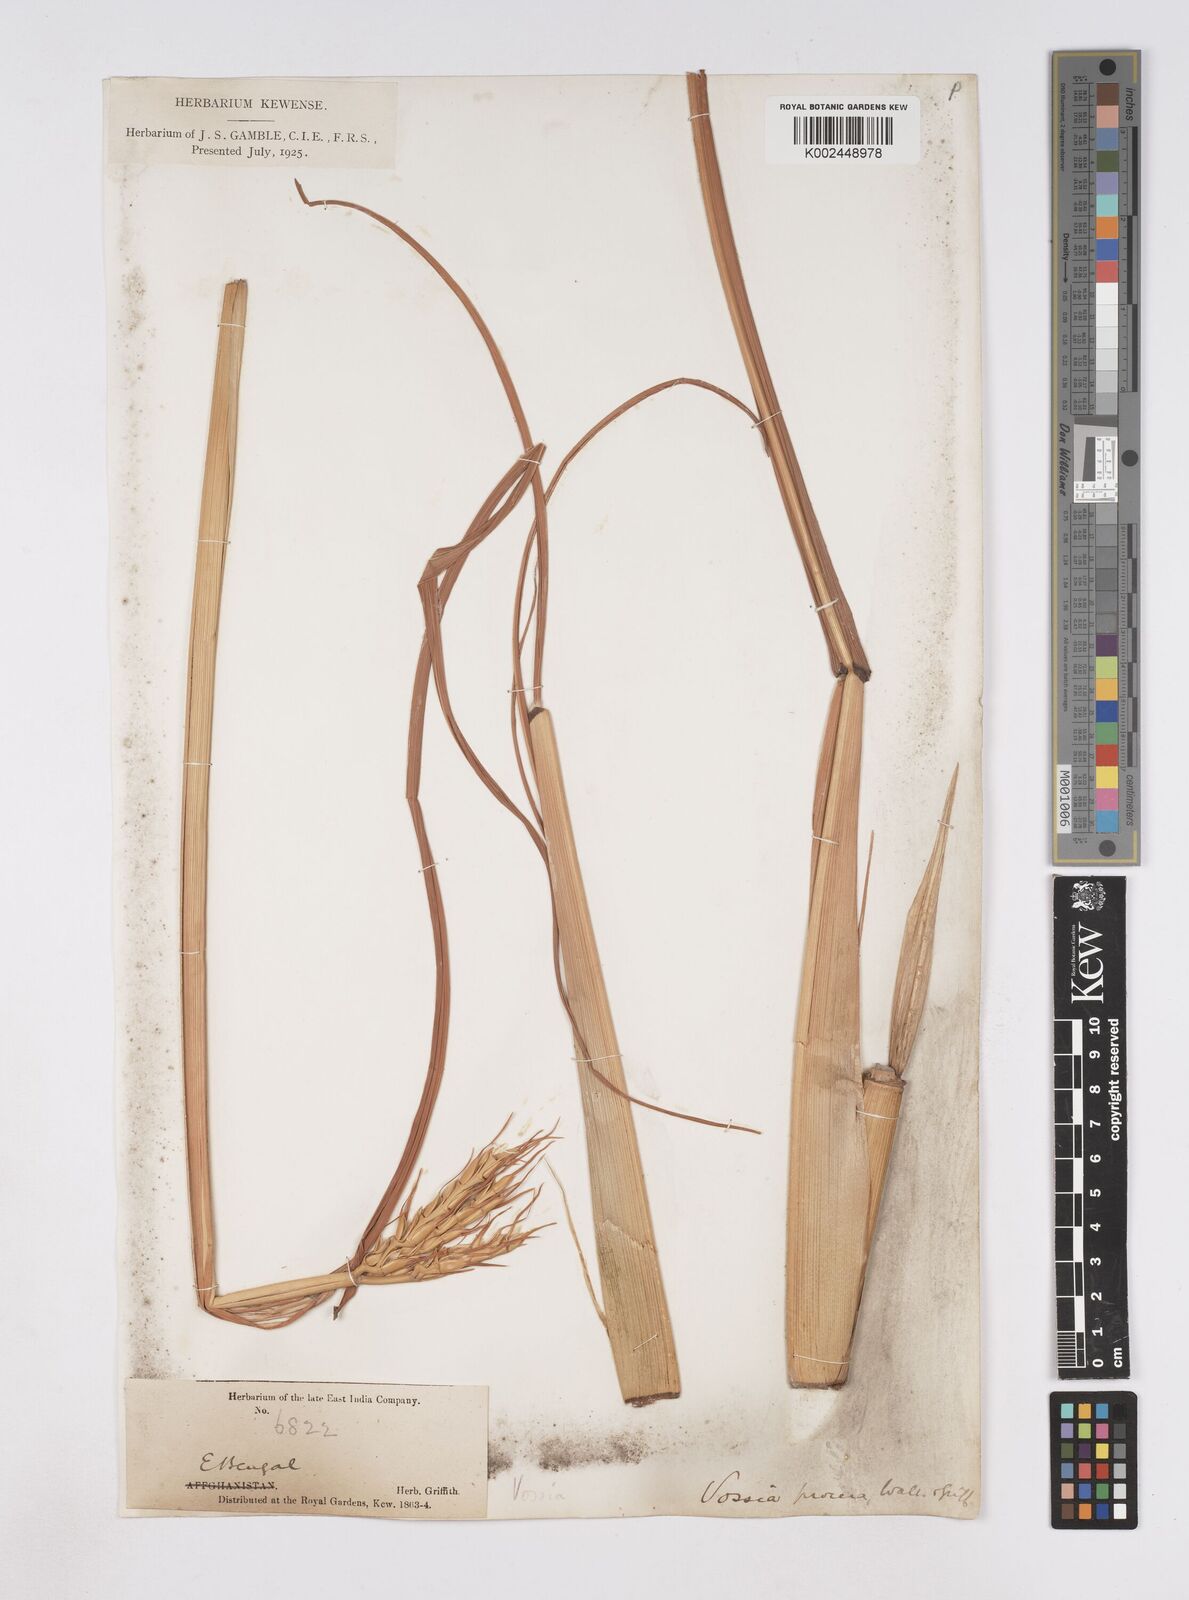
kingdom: Plantae
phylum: Tracheophyta
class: Liliopsida
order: Poales
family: Poaceae
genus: Vossia
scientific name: Vossia cuspidata
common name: Hippo grass
